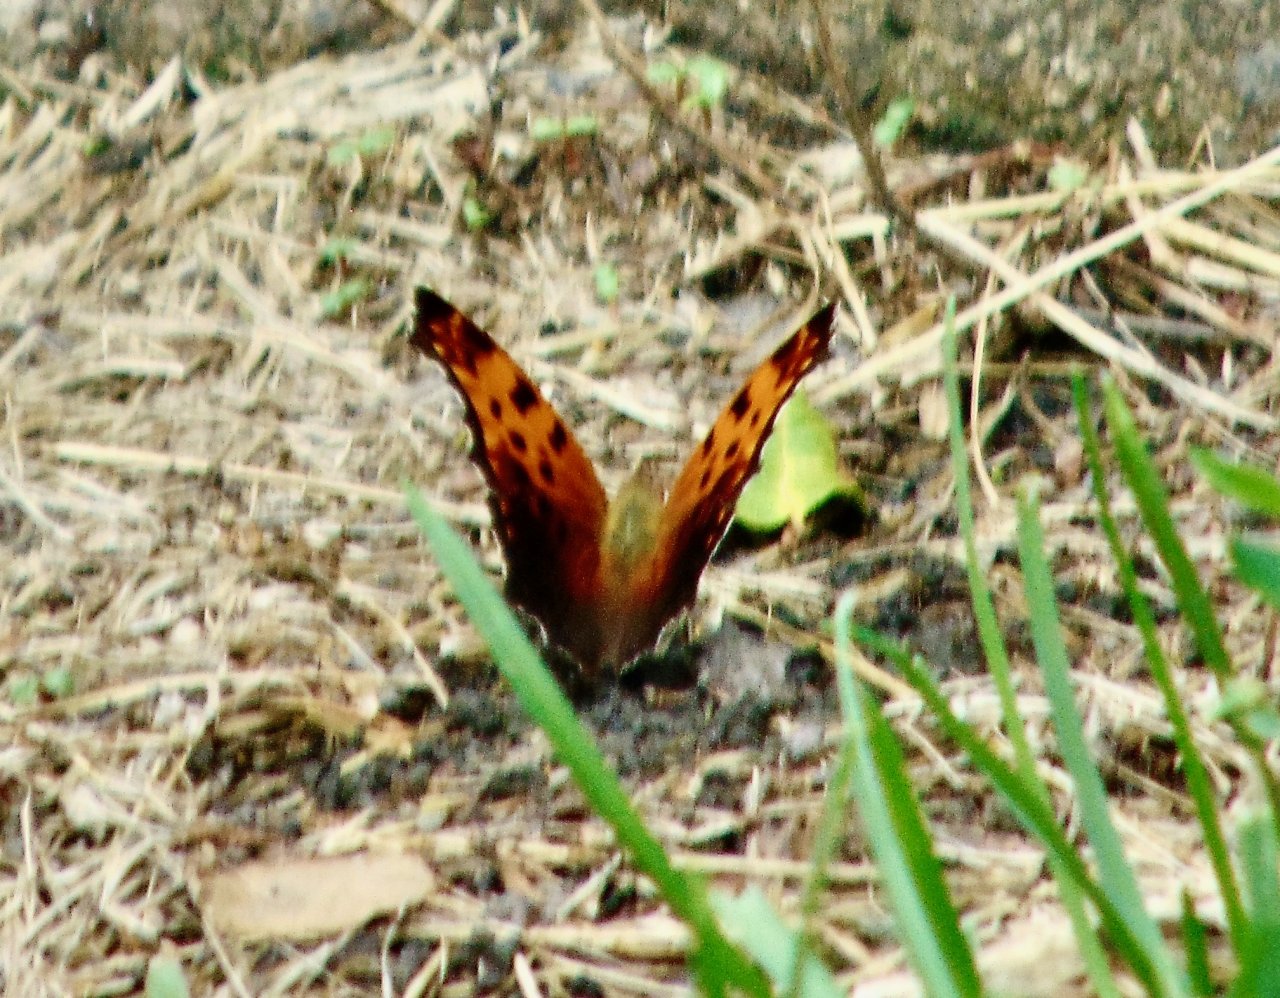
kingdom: Animalia
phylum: Arthropoda
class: Insecta
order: Lepidoptera
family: Nymphalidae
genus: Polygonia
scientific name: Polygonia comma
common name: Eastern Comma
